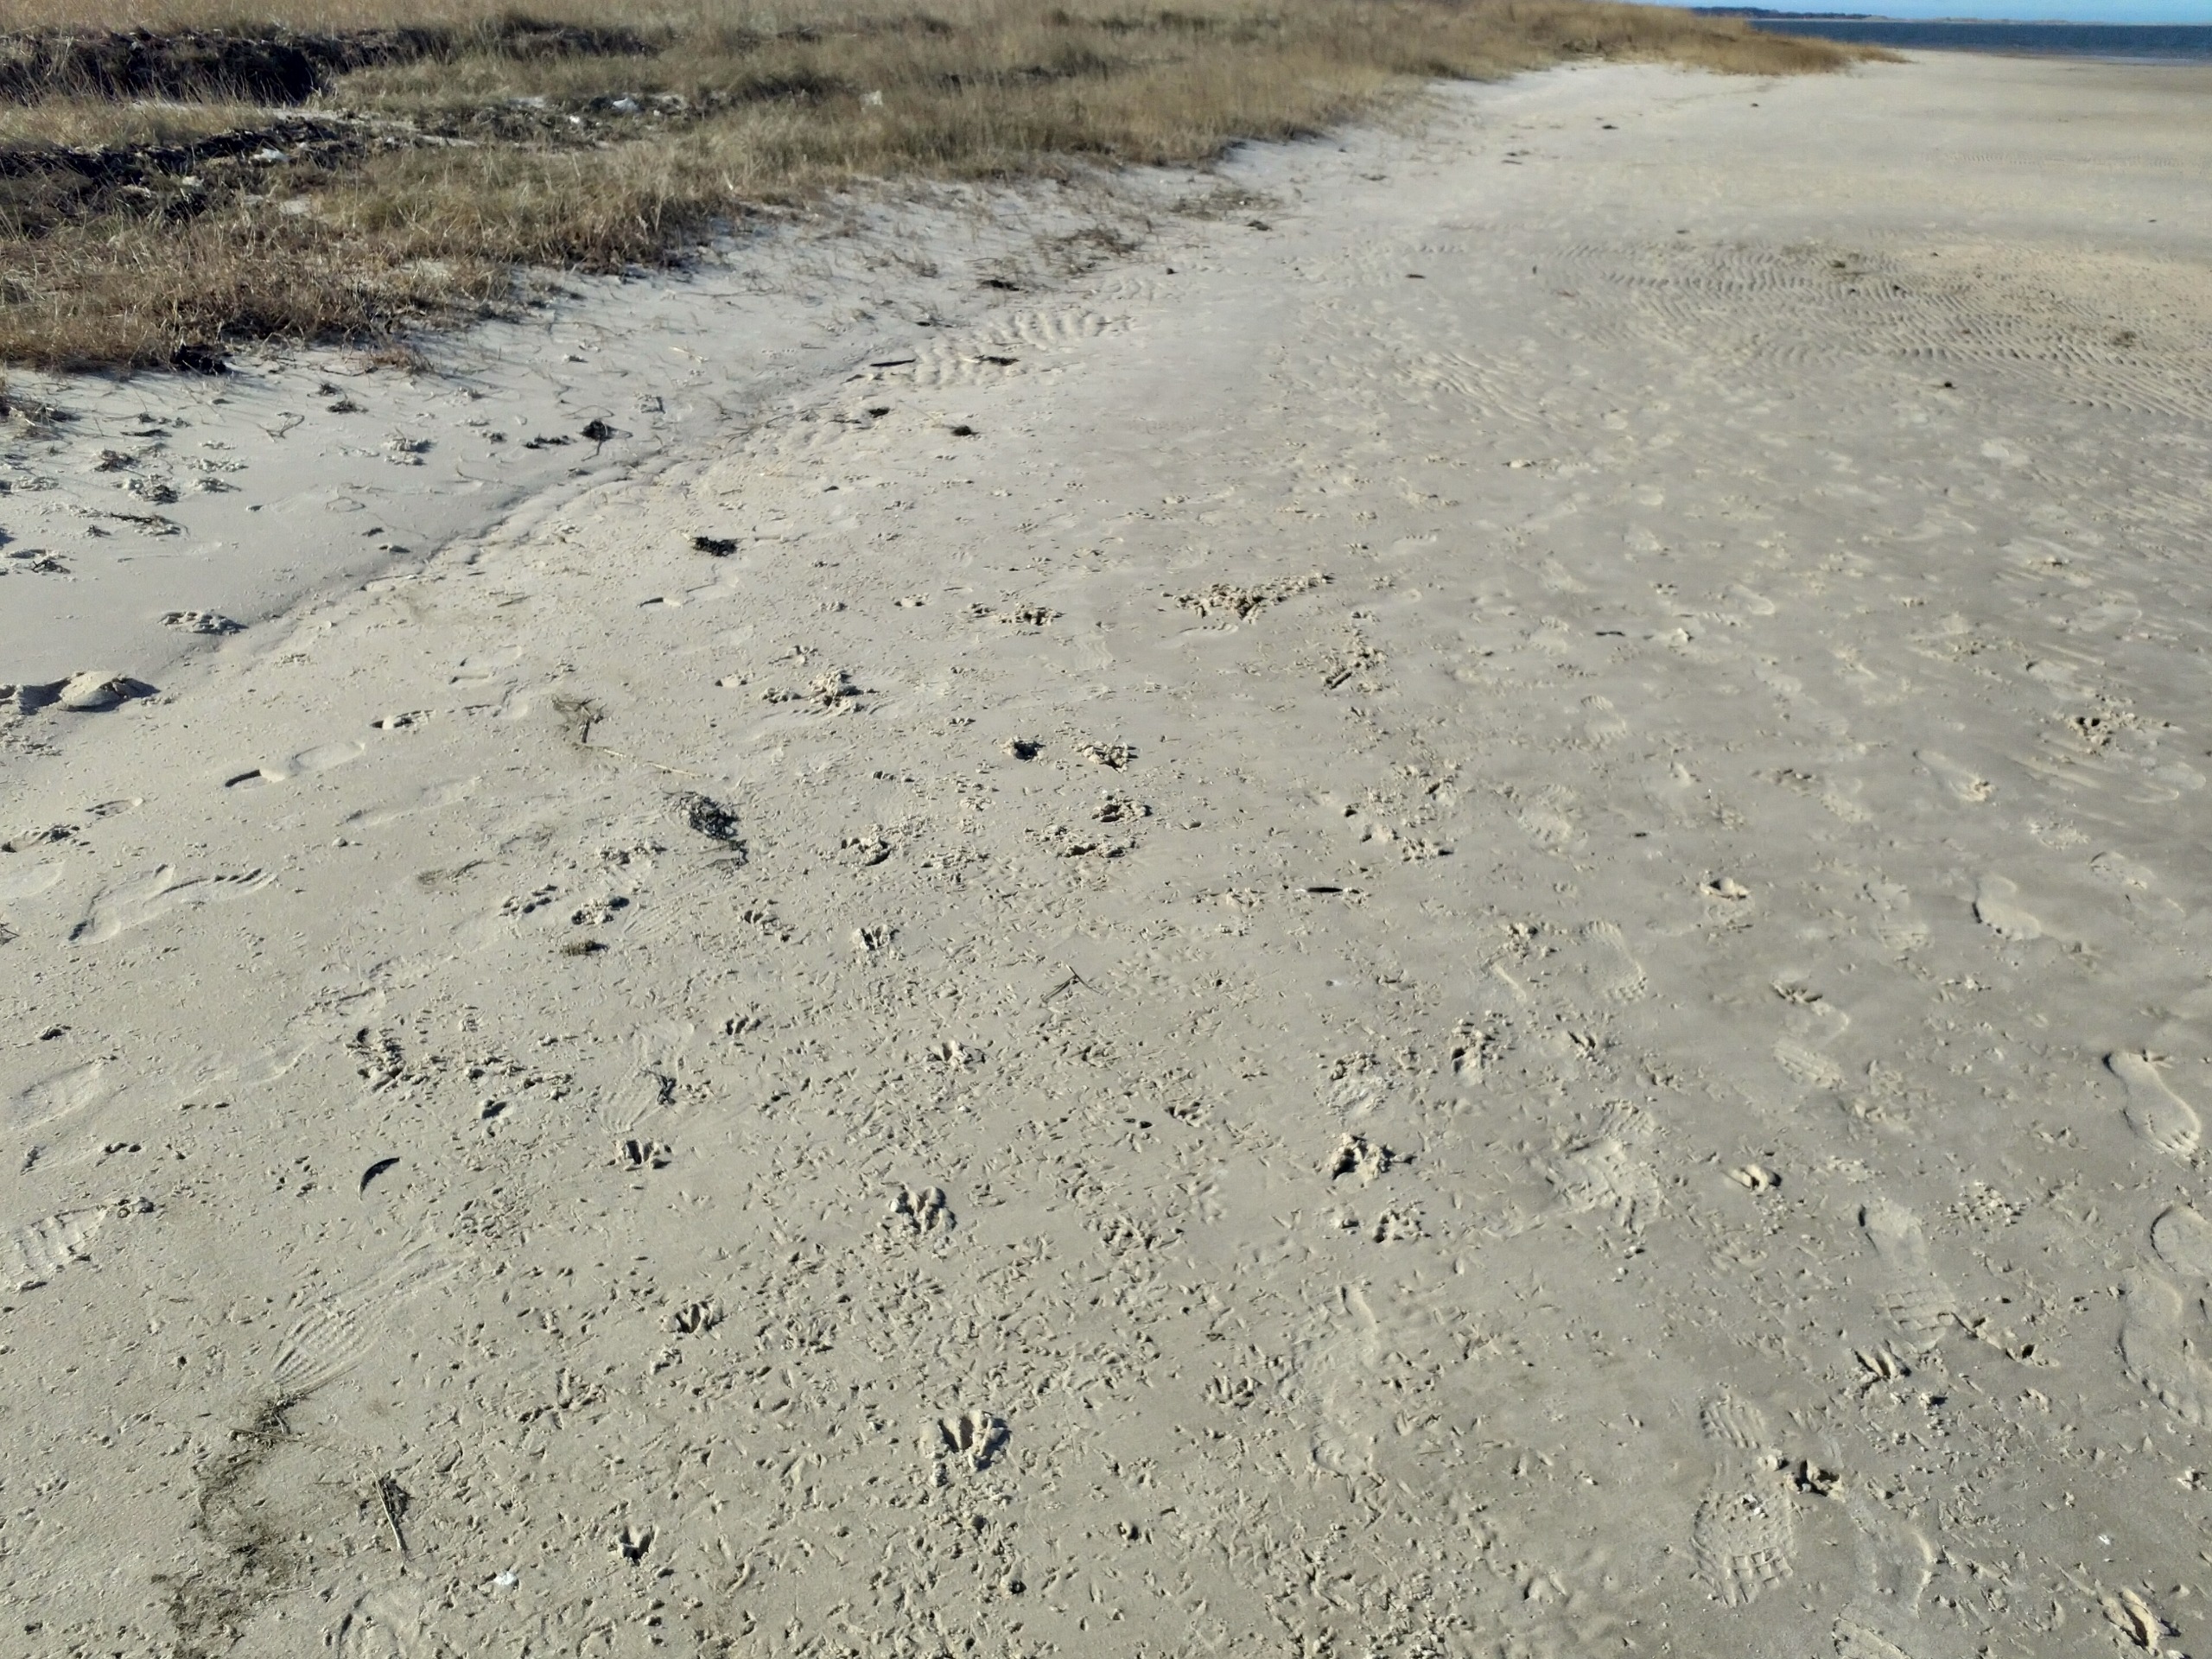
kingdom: Animalia
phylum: Chordata
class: Mammalia
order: Artiodactyla
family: Cervidae
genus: Capreolus
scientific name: Capreolus capreolus
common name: Rådyr
